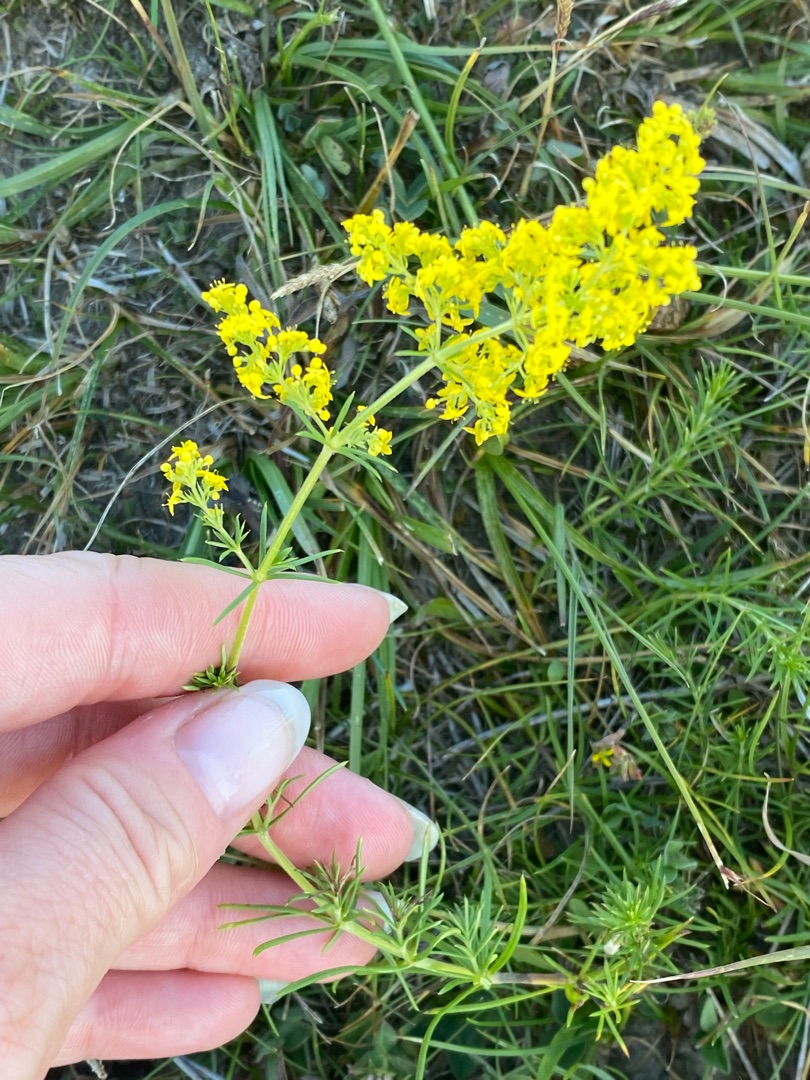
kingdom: Plantae
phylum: Tracheophyta
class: Magnoliopsida
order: Gentianales
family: Rubiaceae
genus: Galium
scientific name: Galium verum
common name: Gul snerre
